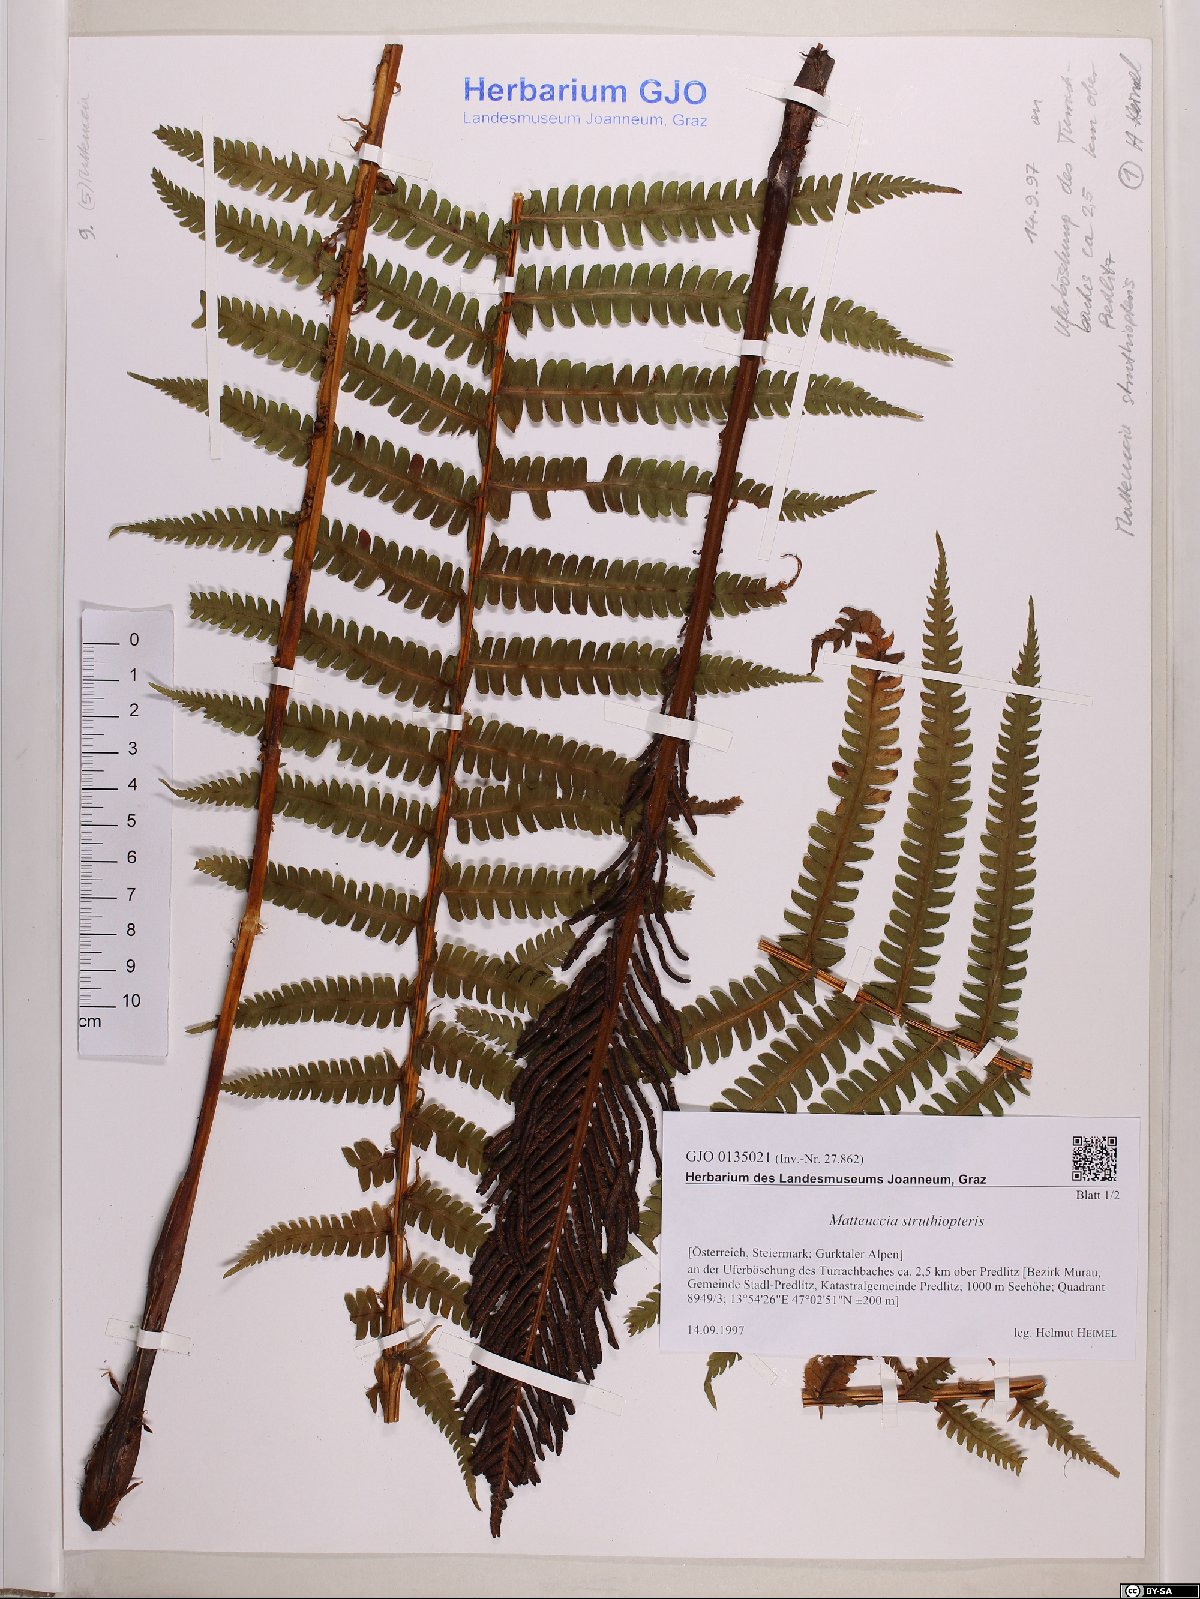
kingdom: Plantae
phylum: Tracheophyta
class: Polypodiopsida
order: Polypodiales
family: Onocleaceae
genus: Matteuccia
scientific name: Matteuccia struthiopteris
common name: Ostrich fern
